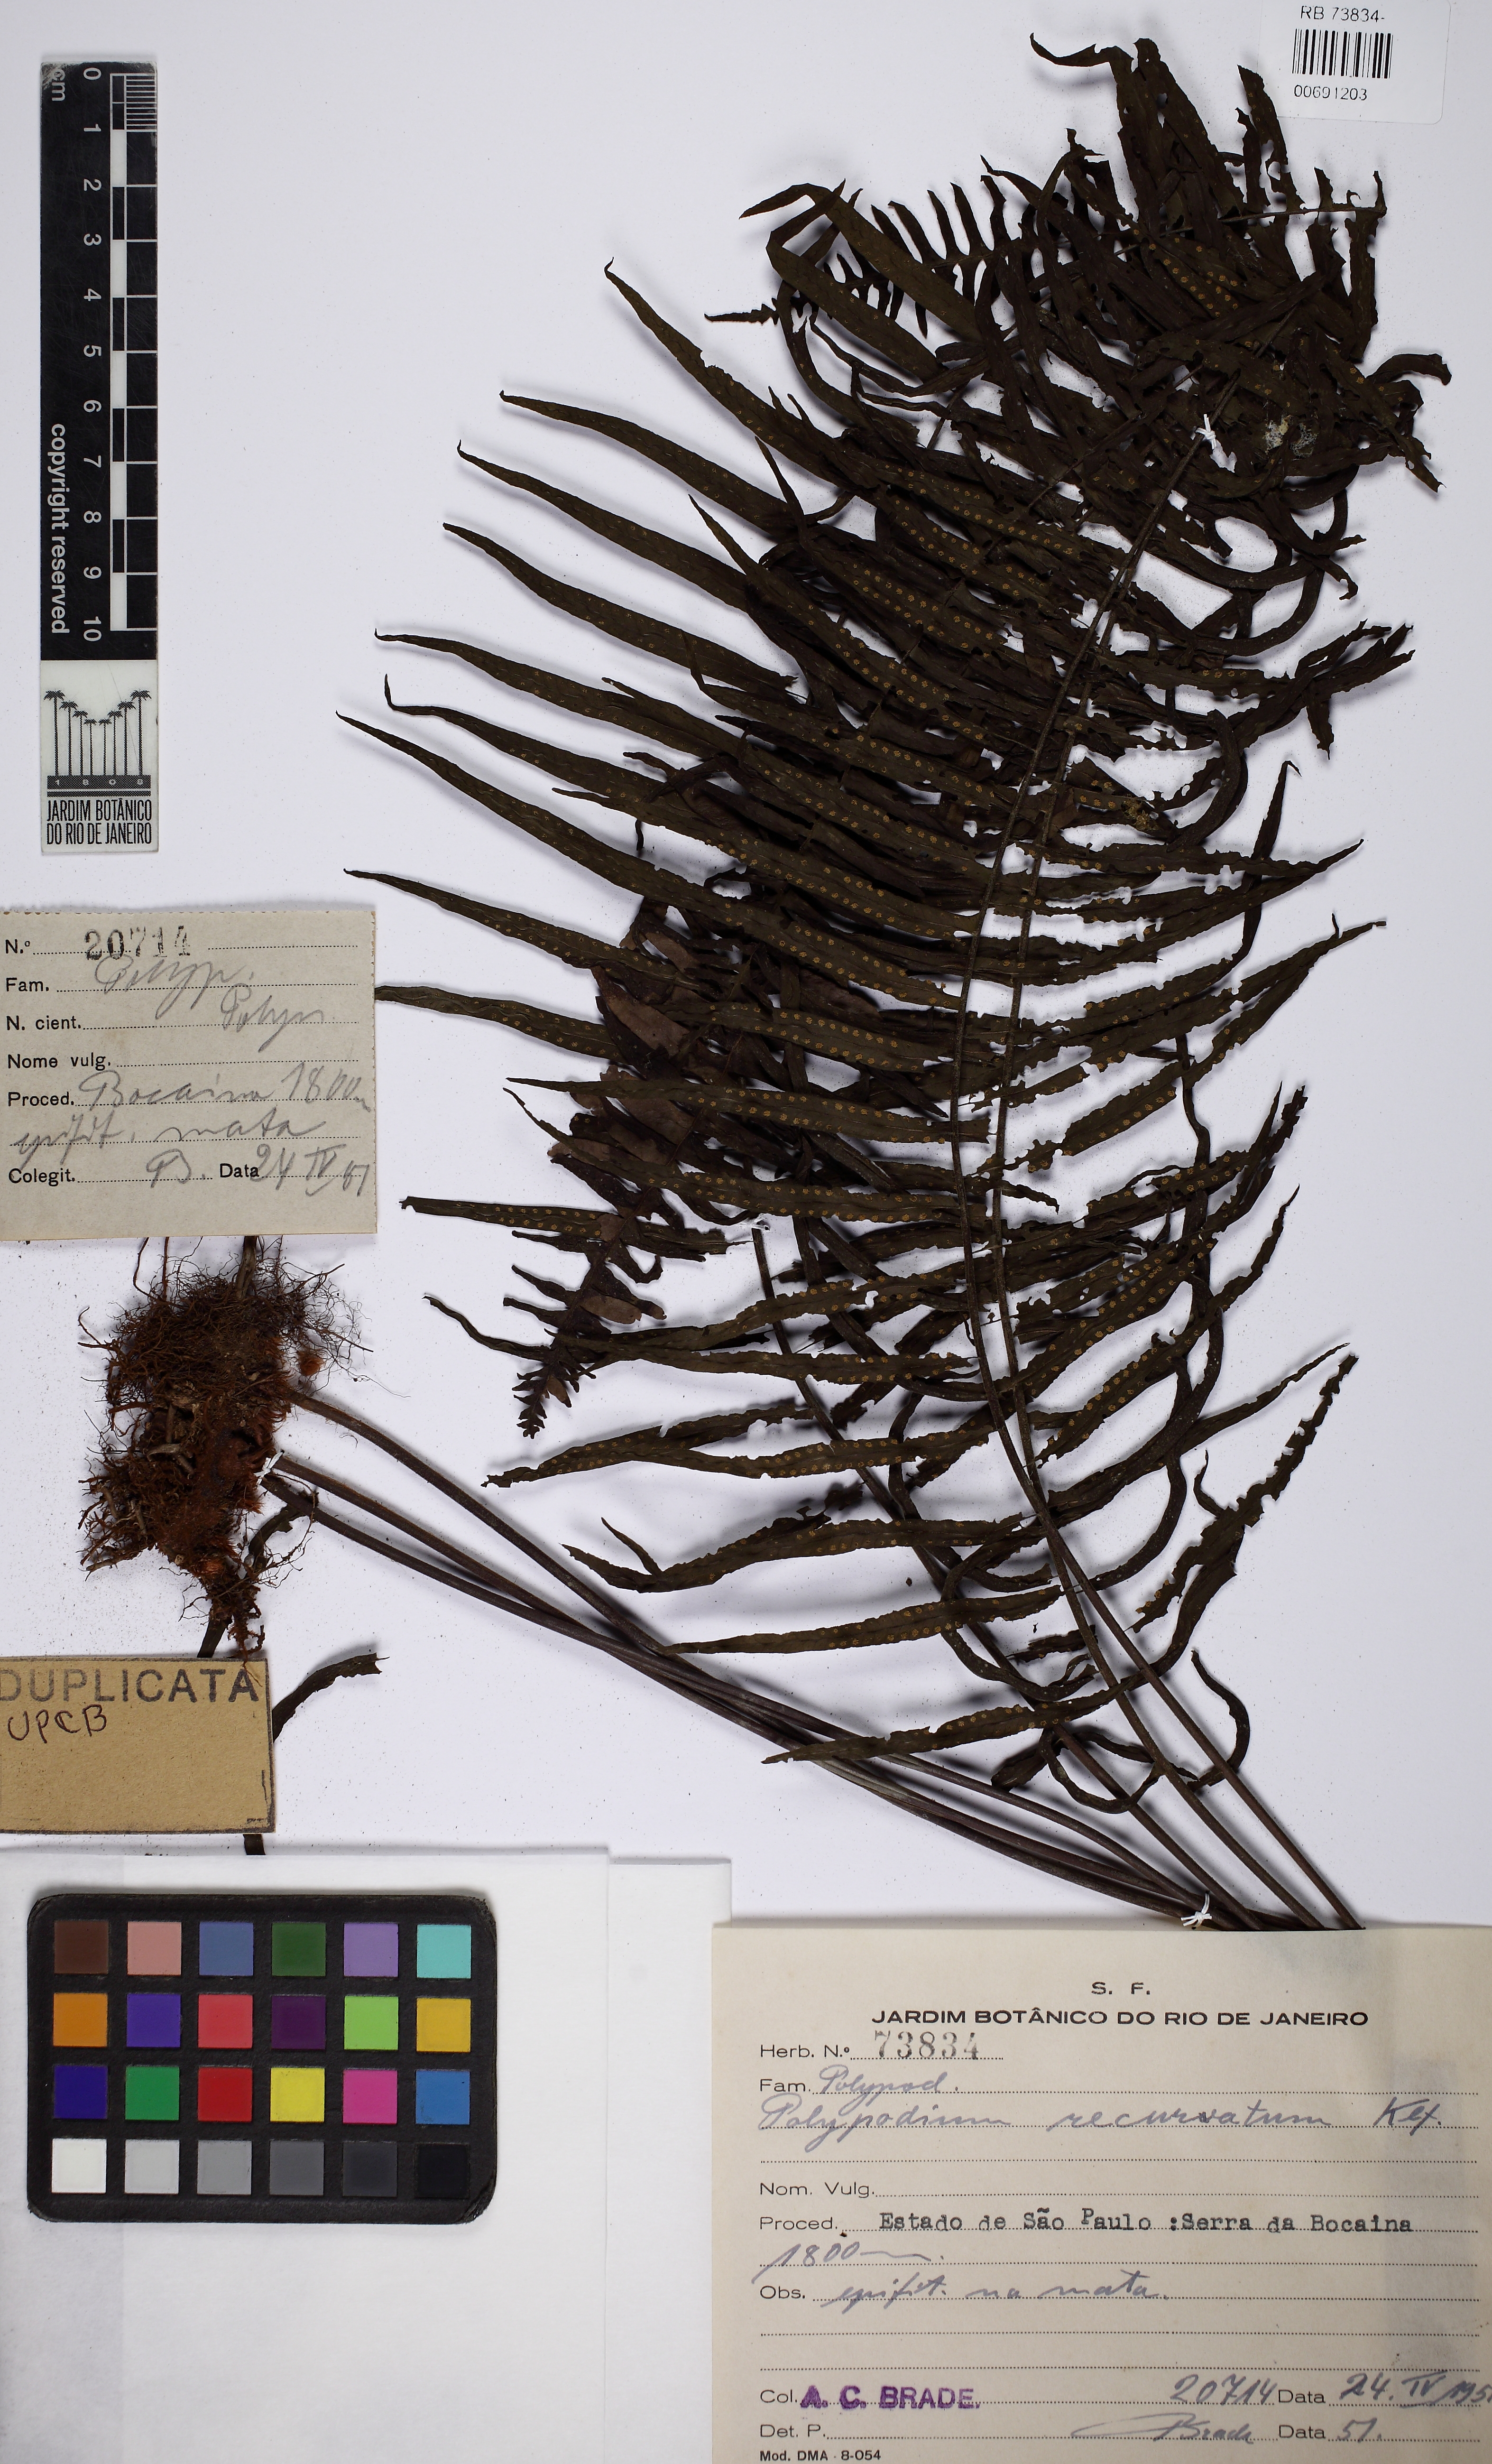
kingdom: Plantae
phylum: Tracheophyta
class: Polypodiopsida
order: Polypodiales
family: Polypodiaceae
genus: Pecluma
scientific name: Pecluma recurvata
